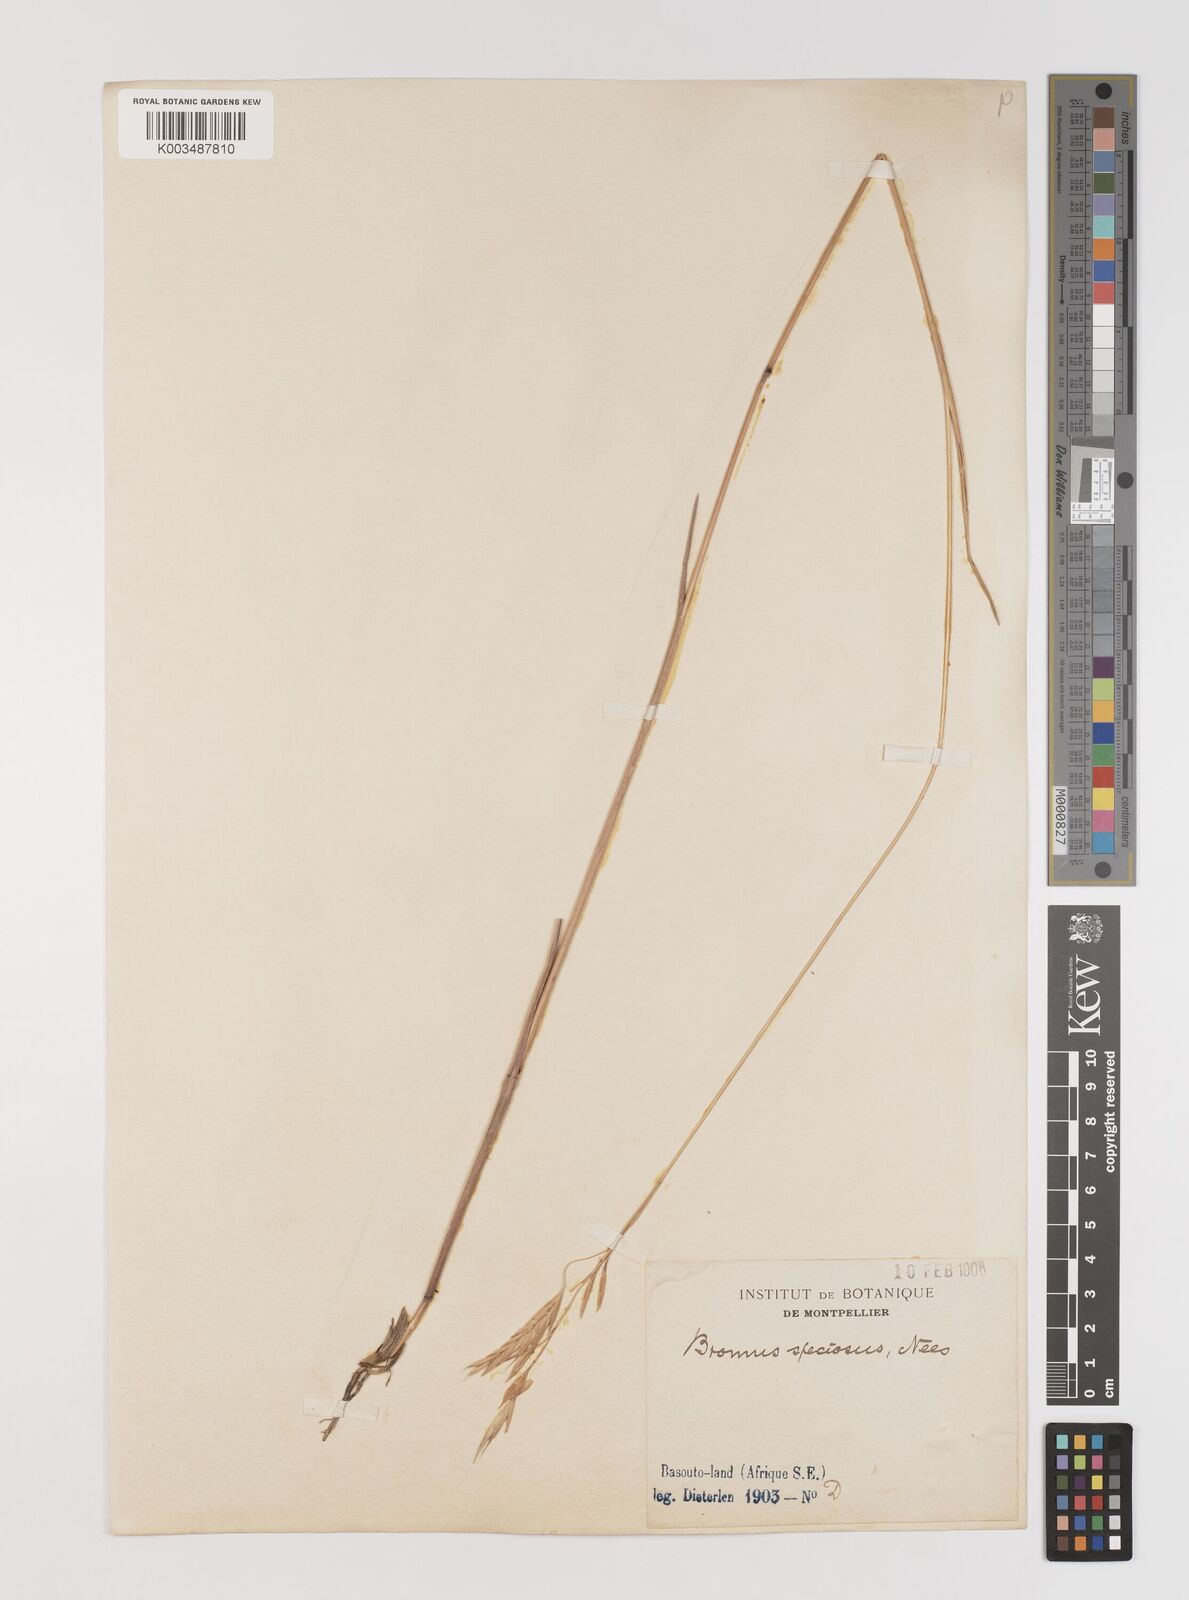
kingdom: Plantae
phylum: Tracheophyta
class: Liliopsida
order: Poales
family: Poaceae
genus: Bromus
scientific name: Bromus speciosus
